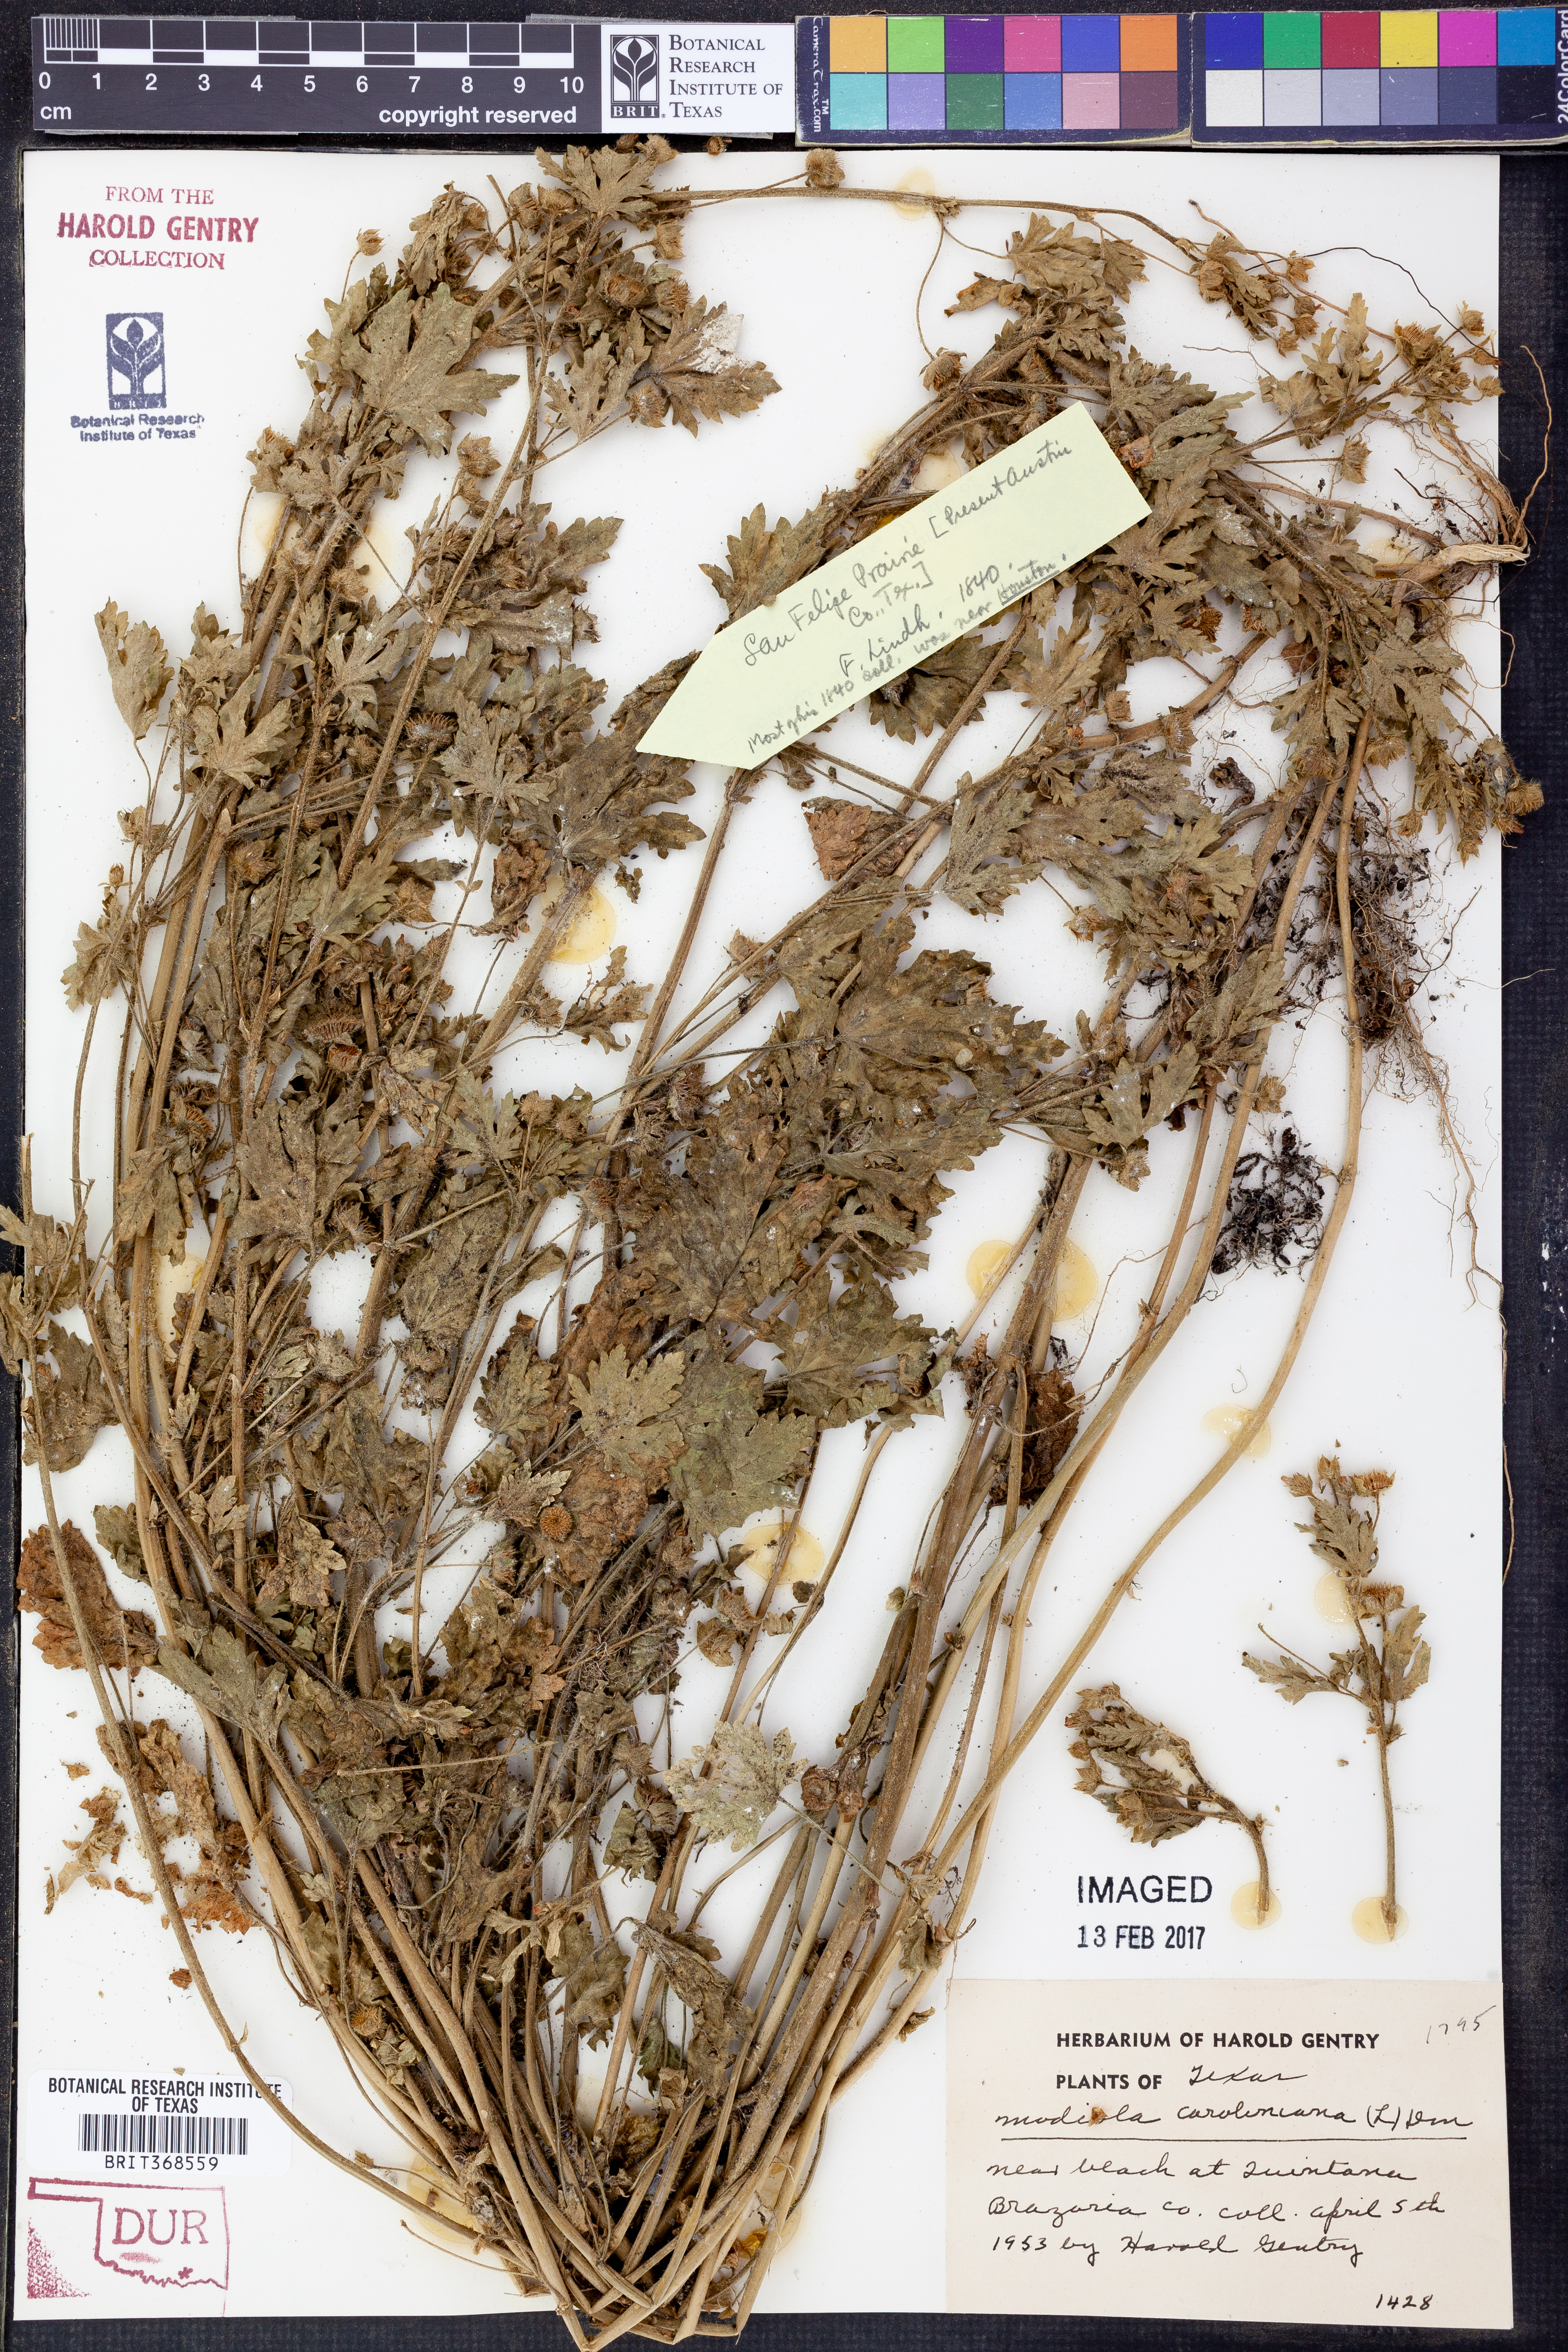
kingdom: Plantae
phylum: Tracheophyta
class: Magnoliopsida
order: Malvales
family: Malvaceae
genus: Modiola
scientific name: Modiola caroliniana
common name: Carolina bristlemallow
